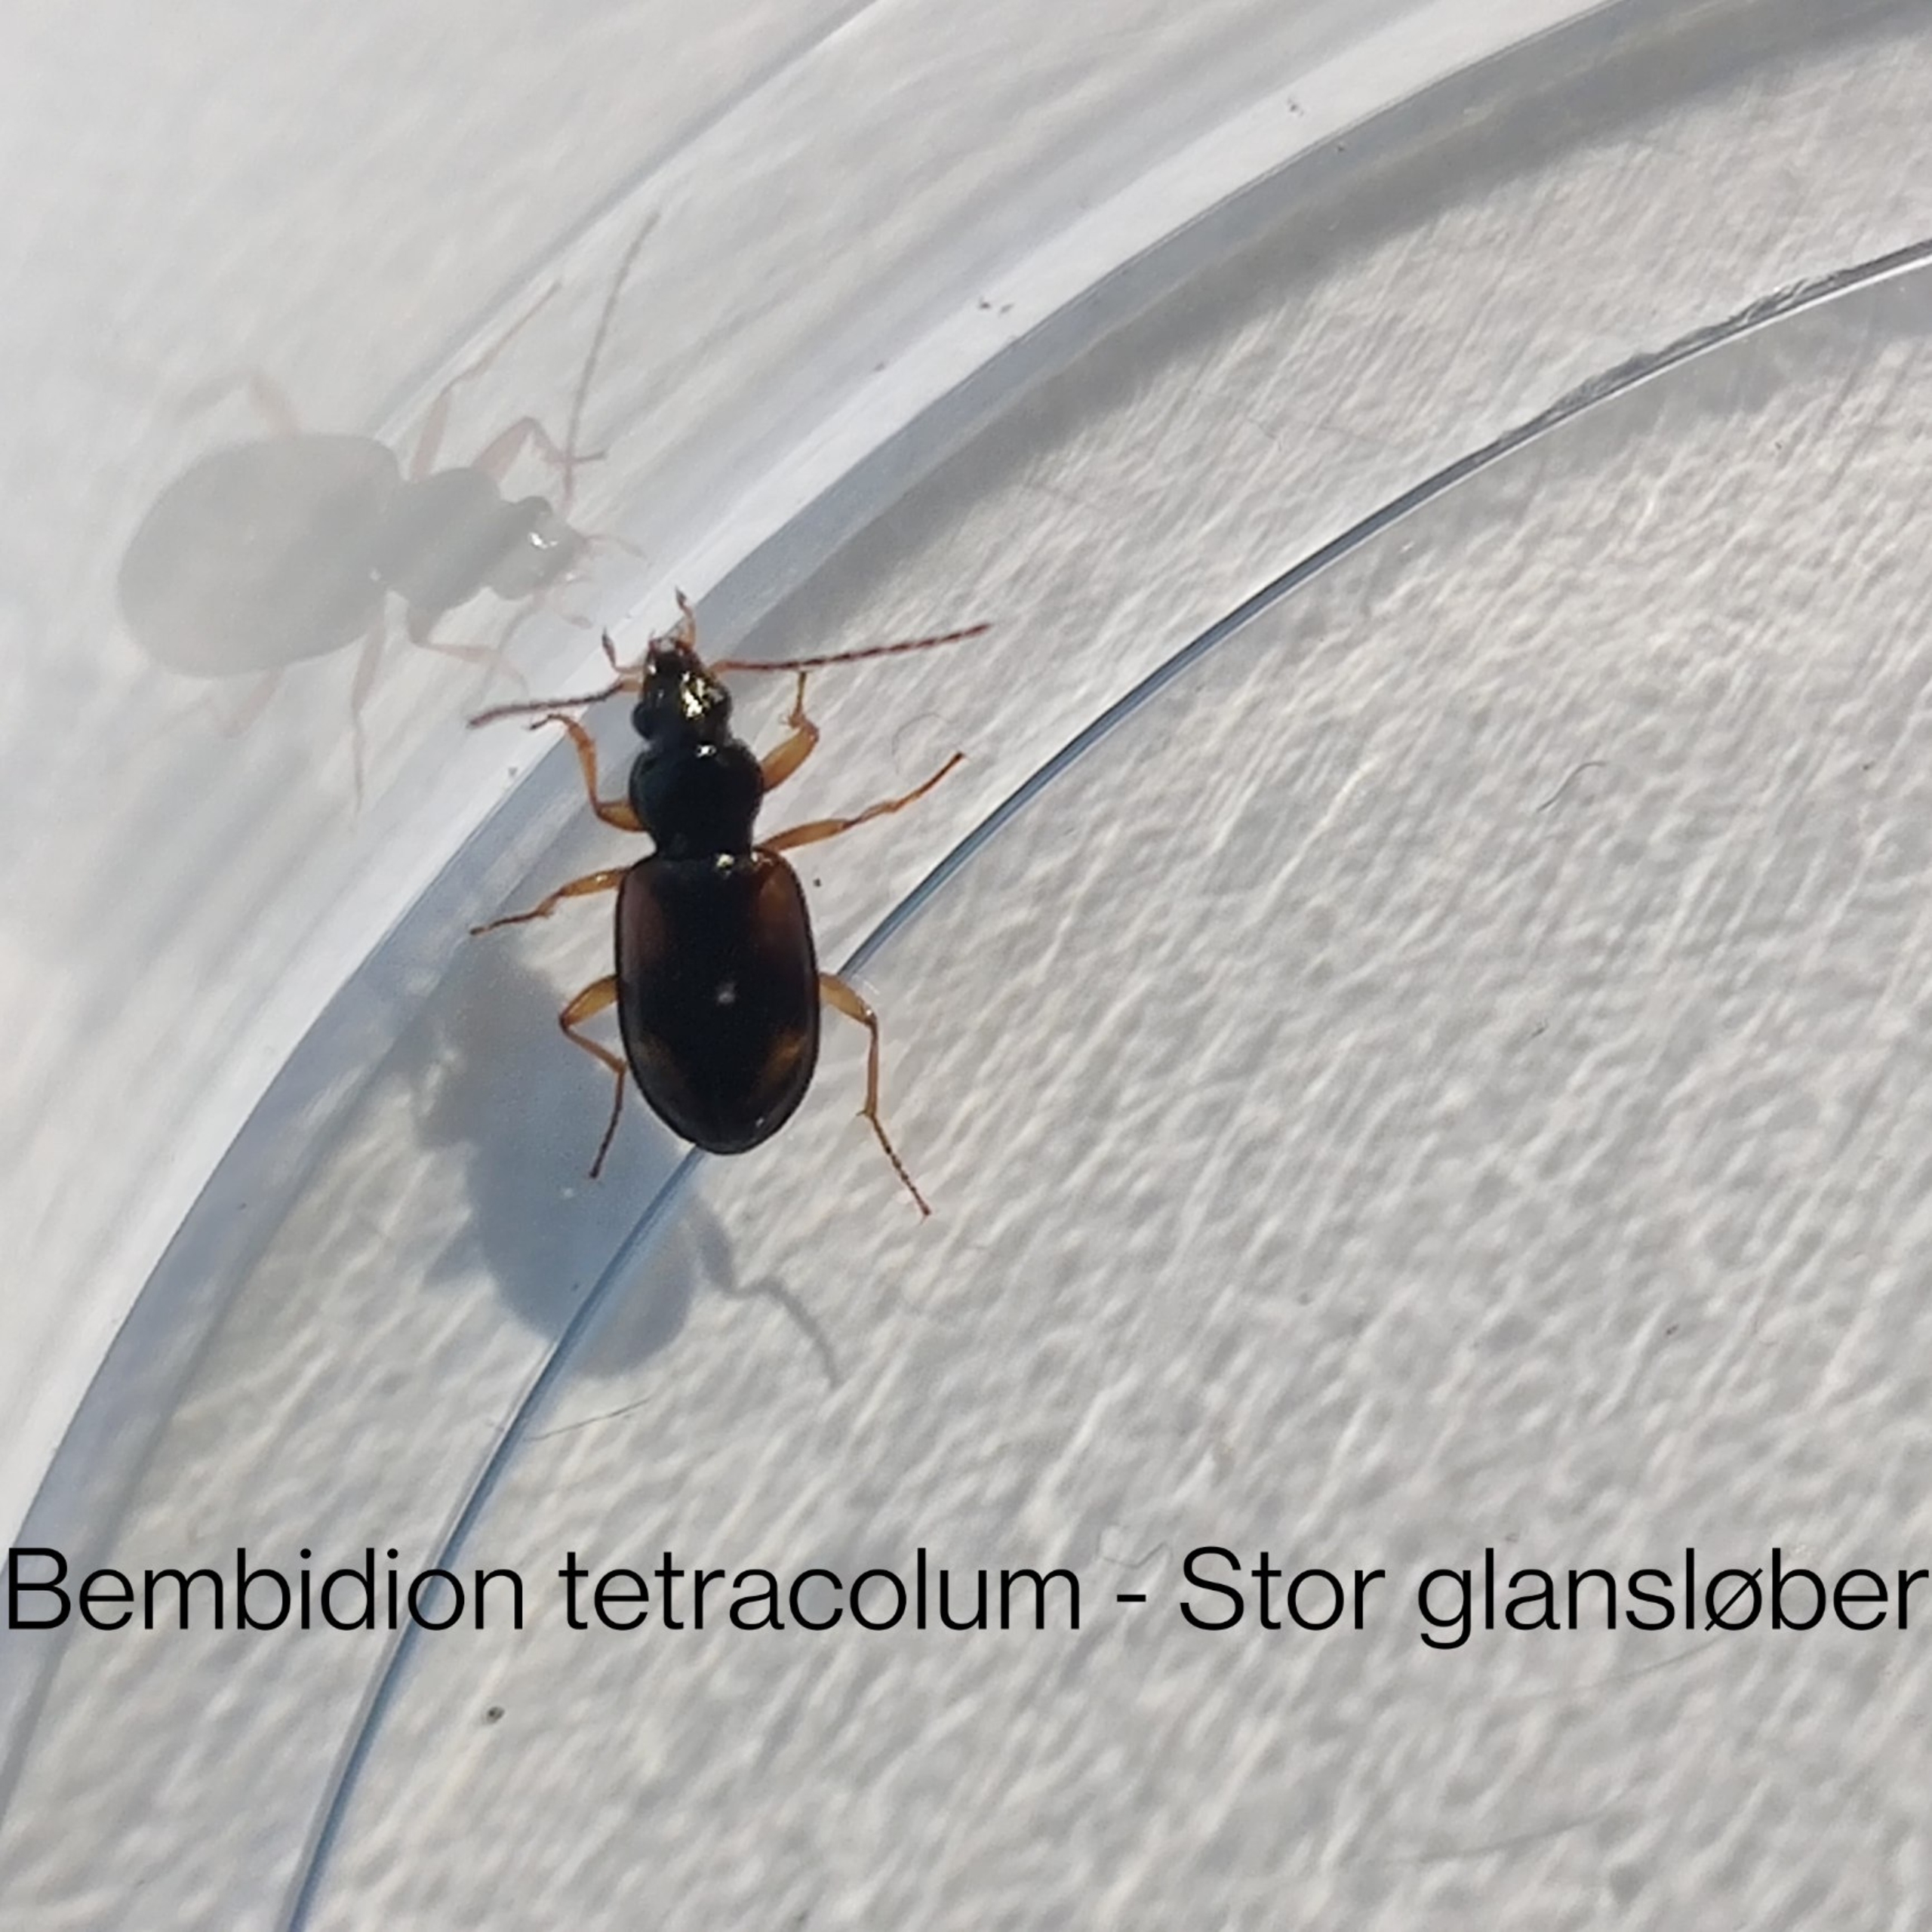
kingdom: Animalia
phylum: Arthropoda
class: Insecta
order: Coleoptera
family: Carabidae
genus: Bembidion
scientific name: Bembidion tetracolum
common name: Stor glansløber
